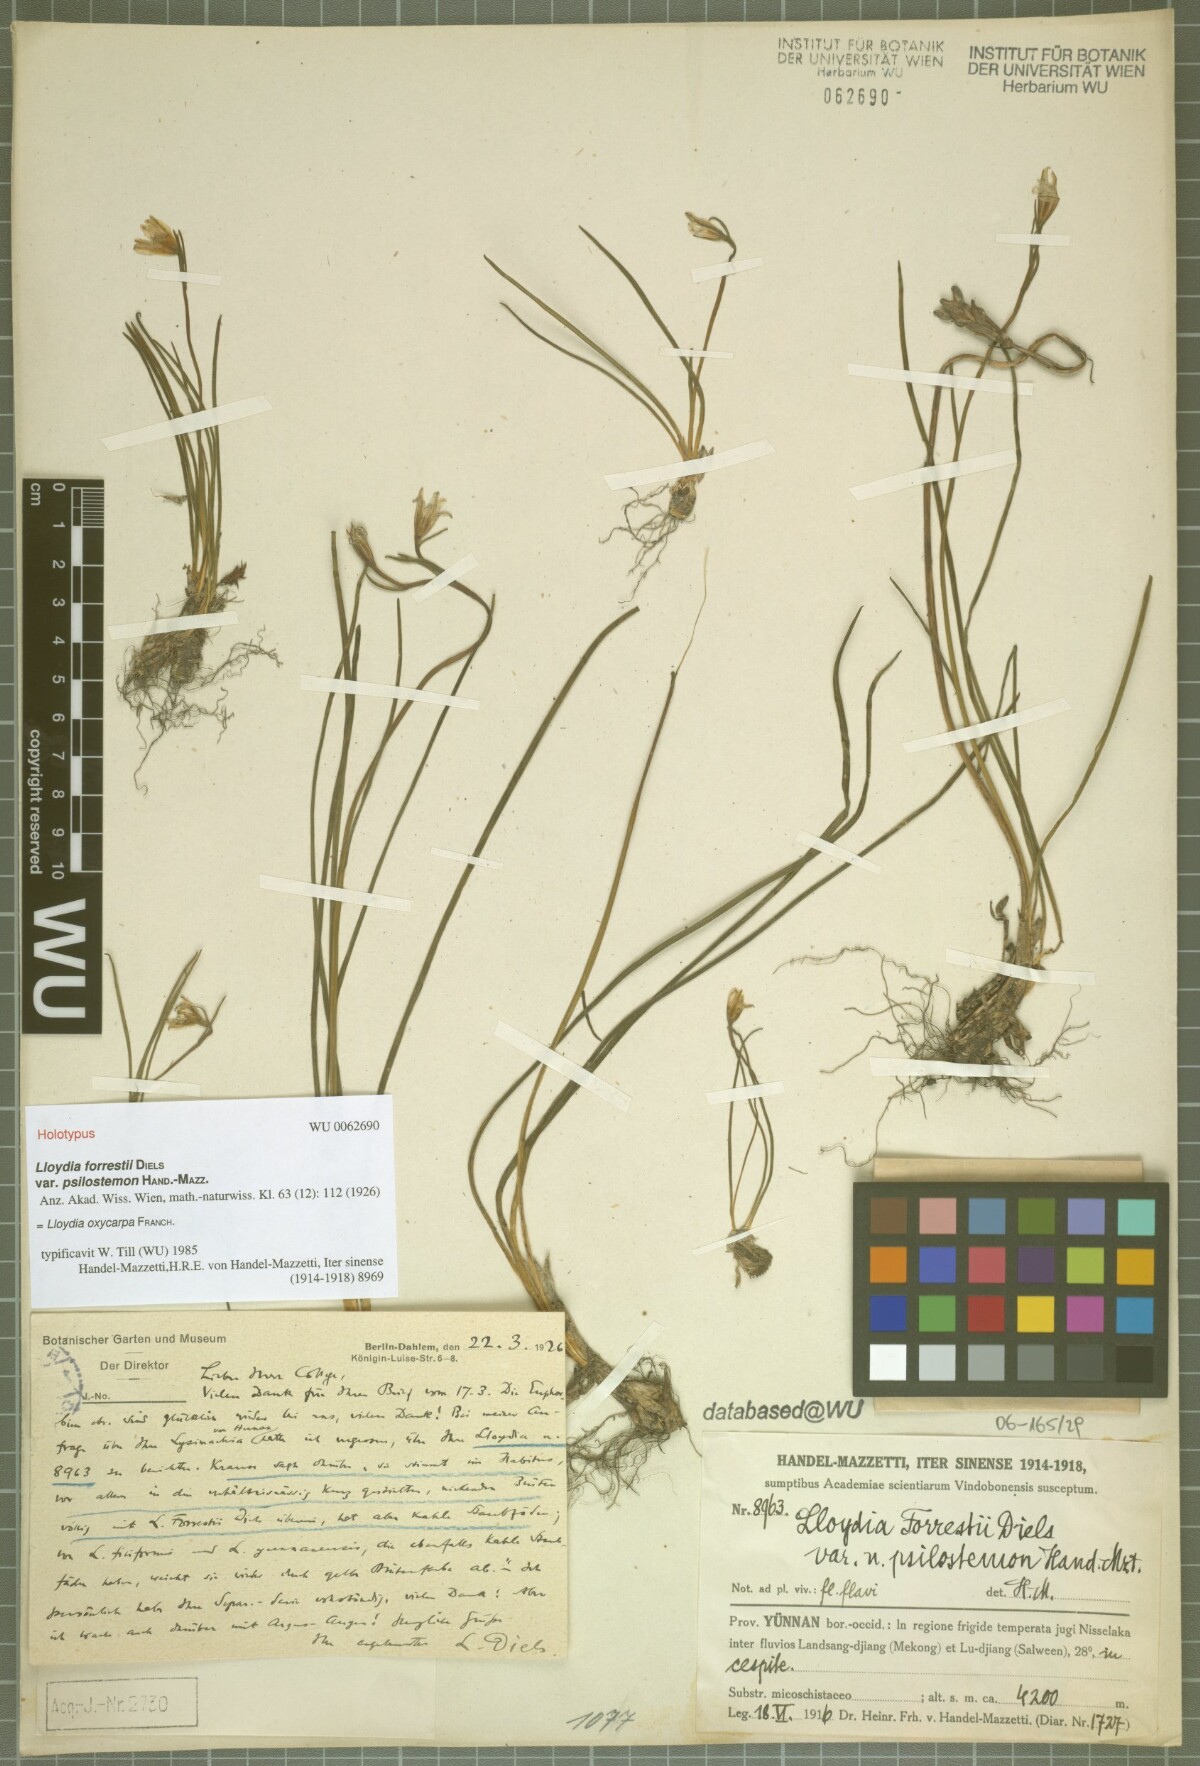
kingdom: Plantae
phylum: Tracheophyta
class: Liliopsida
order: Liliales
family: Liliaceae
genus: Gagea
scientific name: Gagea oxycarpa
